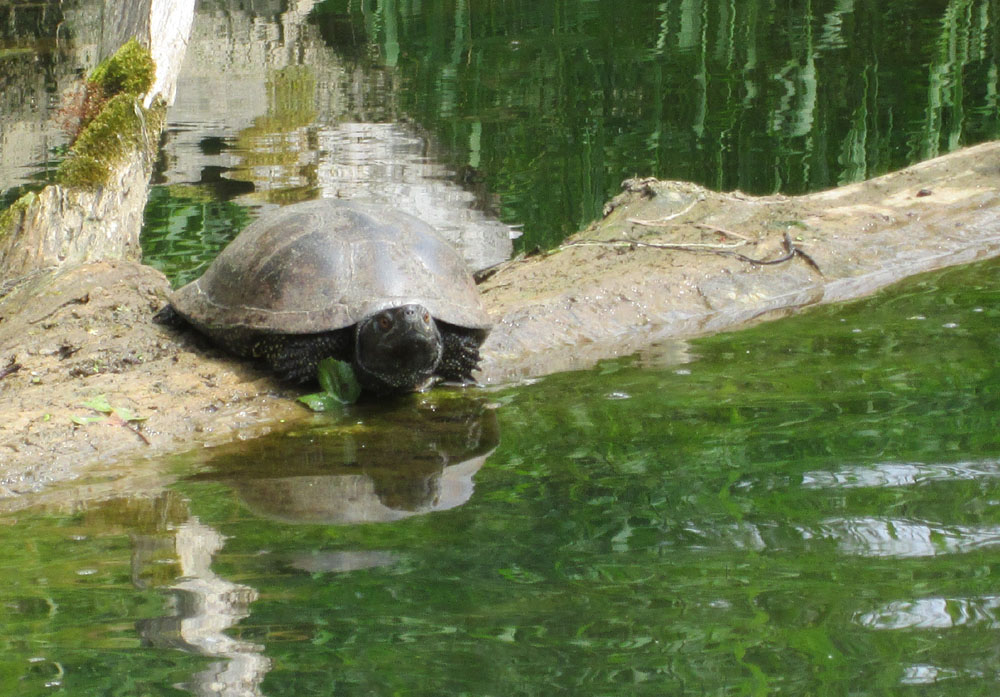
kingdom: Animalia
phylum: Chordata
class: Testudines
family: Emydidae
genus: Emys
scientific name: Emys orbicularis
